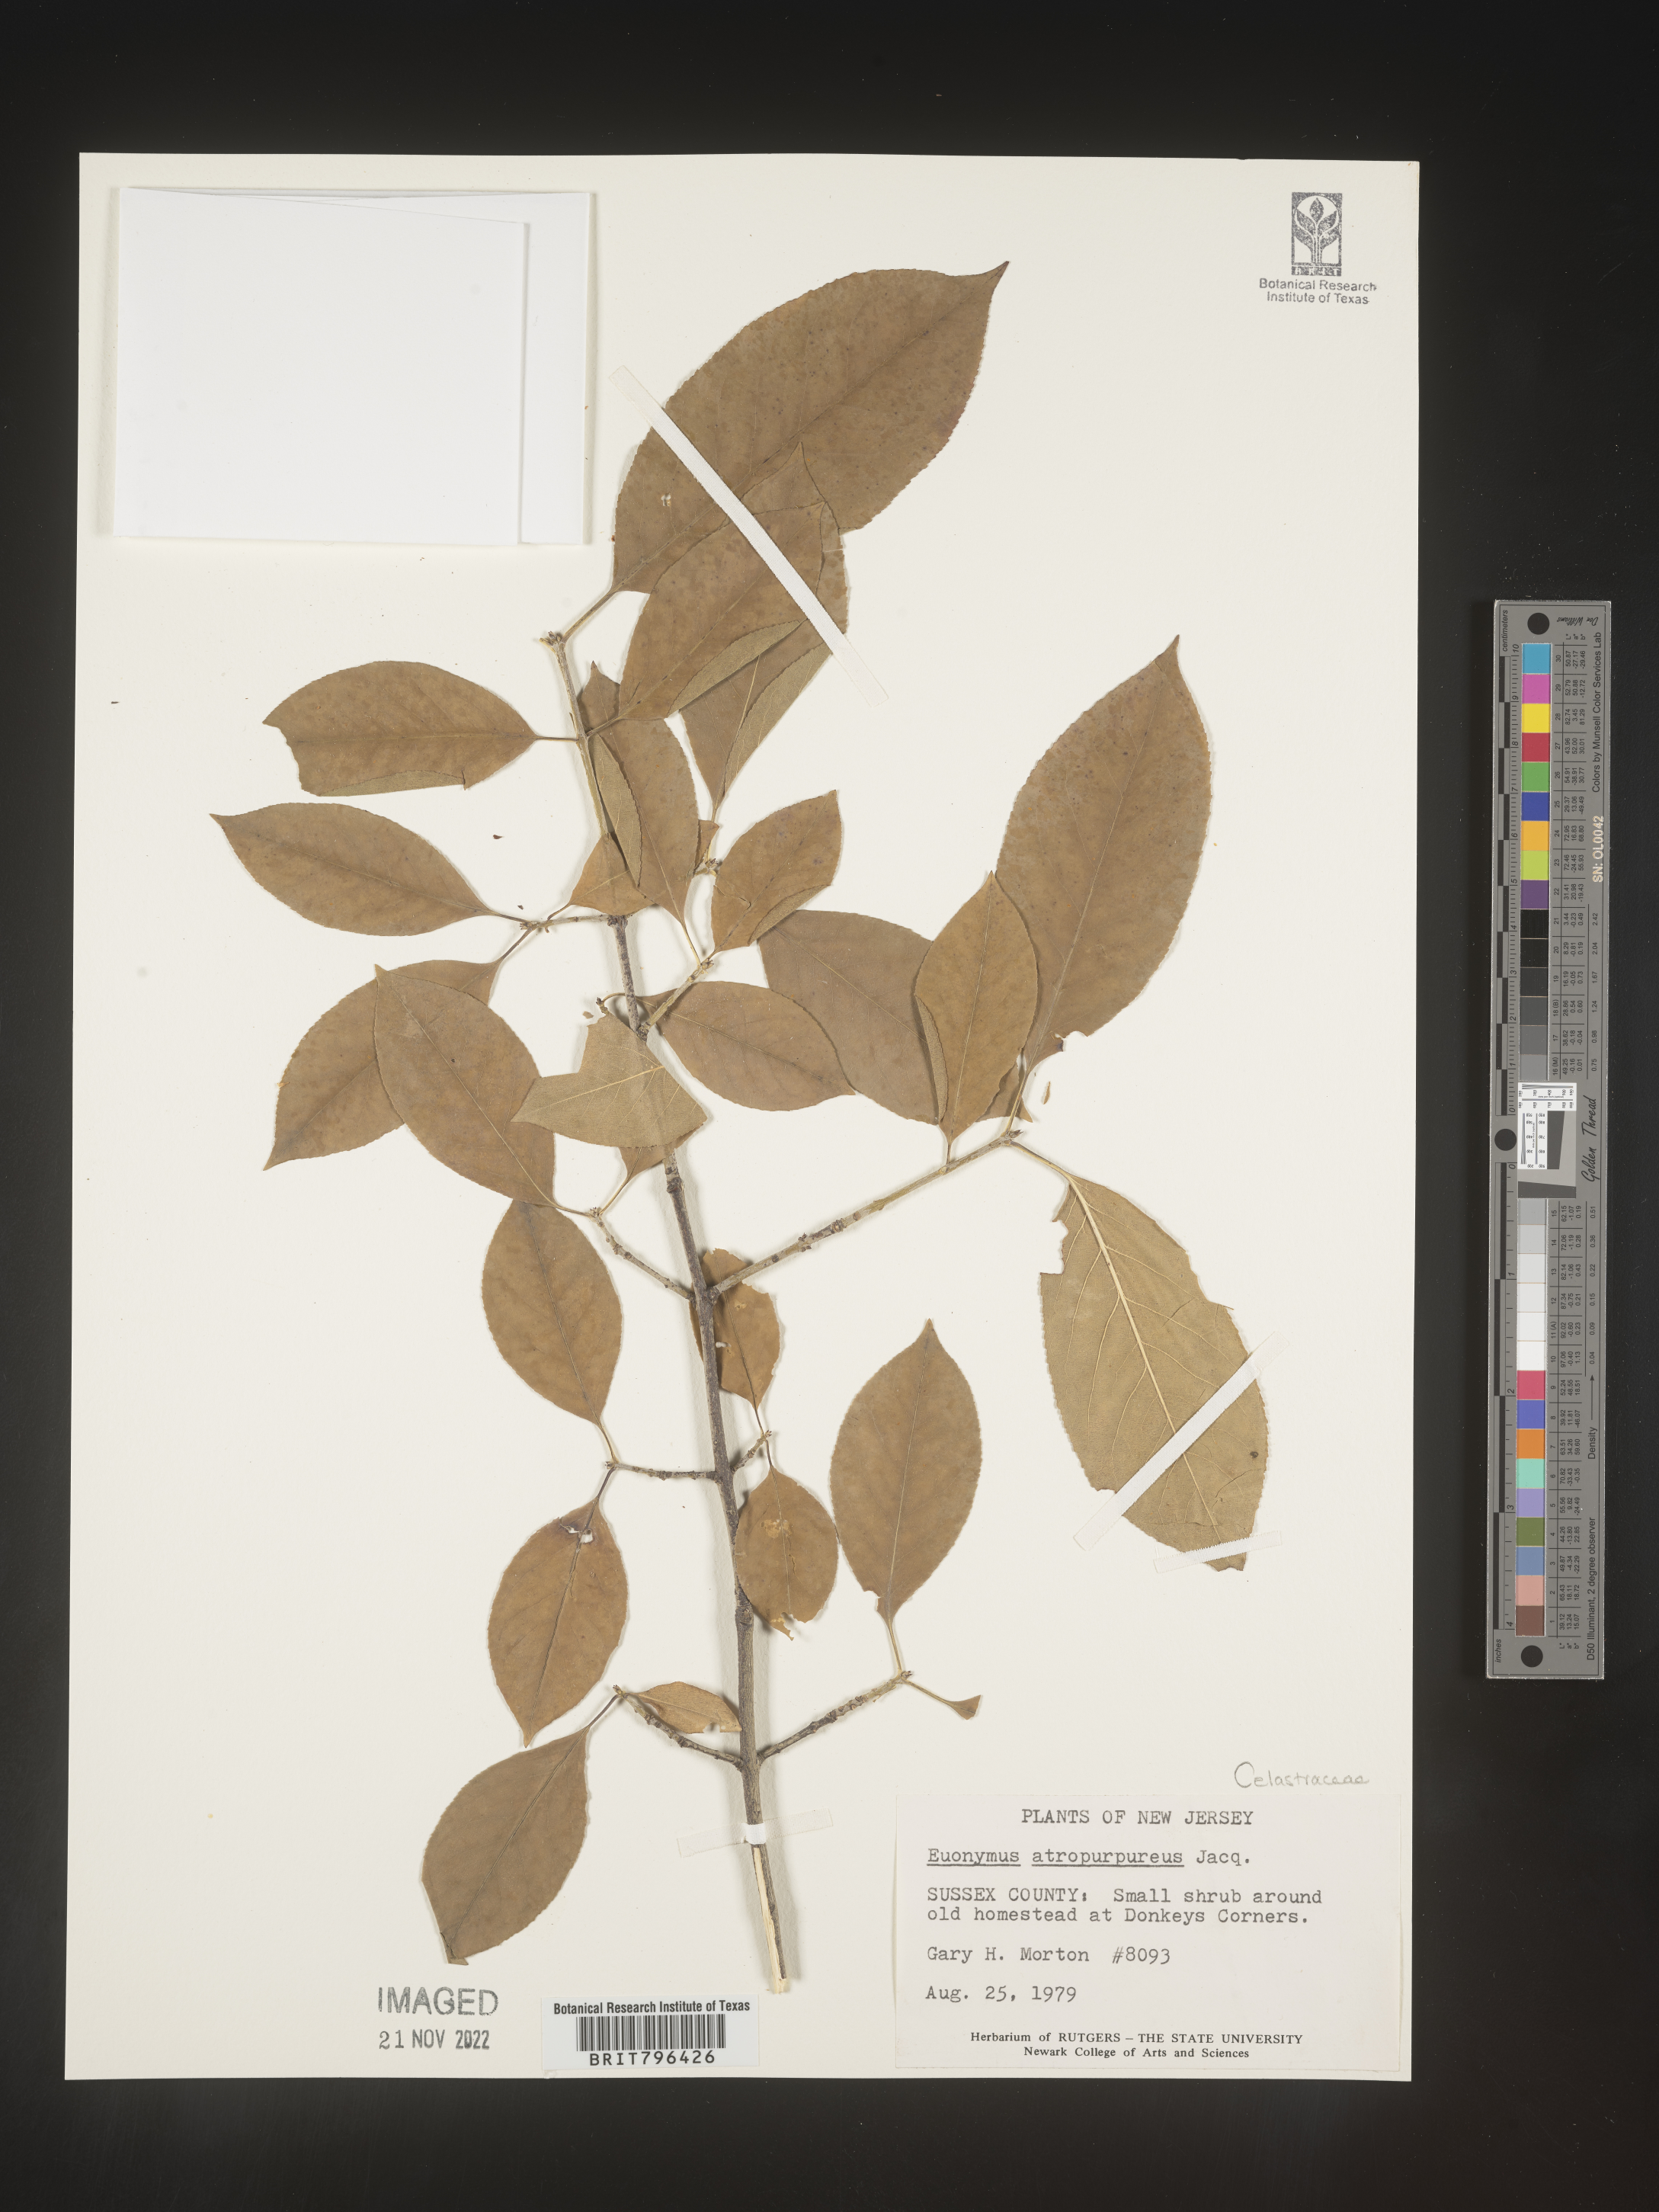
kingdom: Plantae
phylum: Tracheophyta
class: Magnoliopsida
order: Celastrales
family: Celastraceae
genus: Euonymus
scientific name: Euonymus atropurpureus
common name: Eastern wahoo
